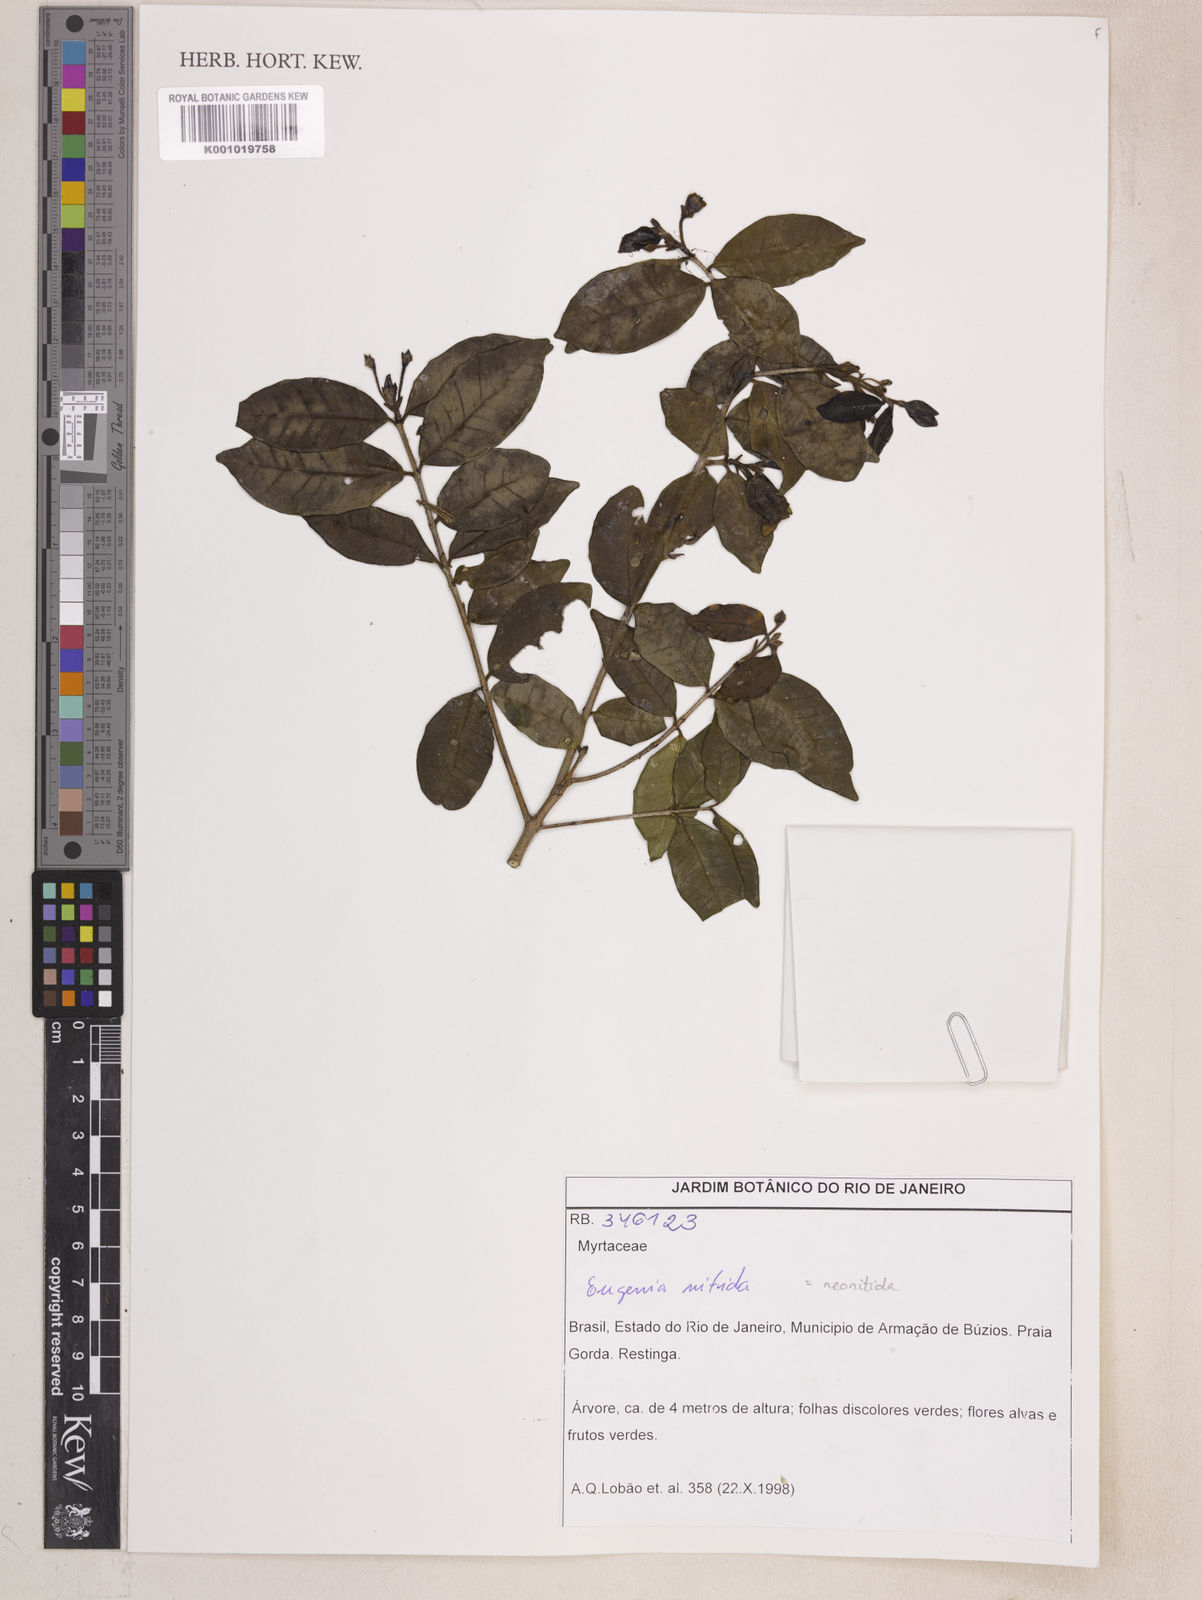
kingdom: Plantae
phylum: Tracheophyta
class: Magnoliopsida
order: Myrtales
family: Myrtaceae
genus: Eugenia
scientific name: Eugenia selloi
